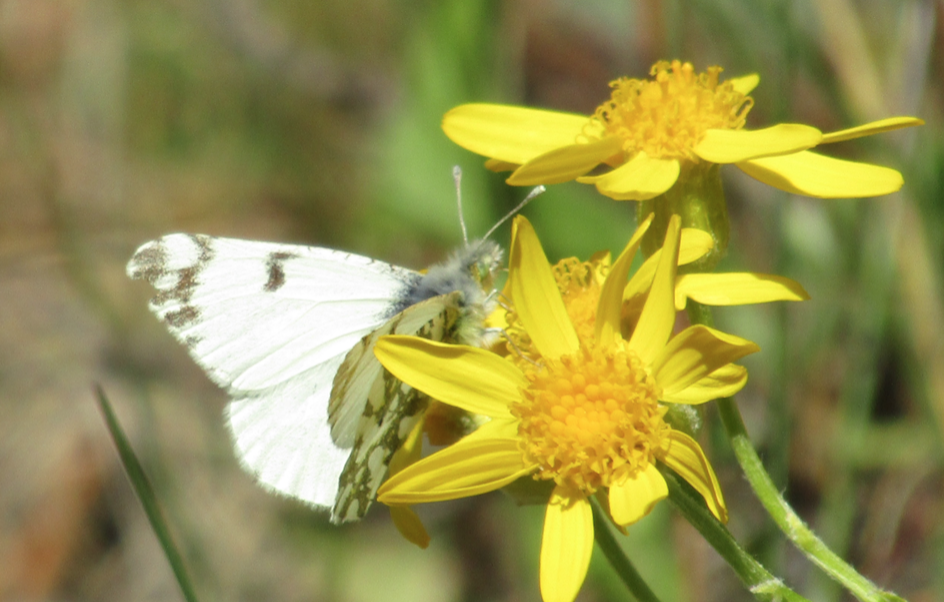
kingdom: Animalia
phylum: Arthropoda
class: Insecta
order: Lepidoptera
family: Pieridae
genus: Euchloe
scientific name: Euchloe ausonides
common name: Large Marble
